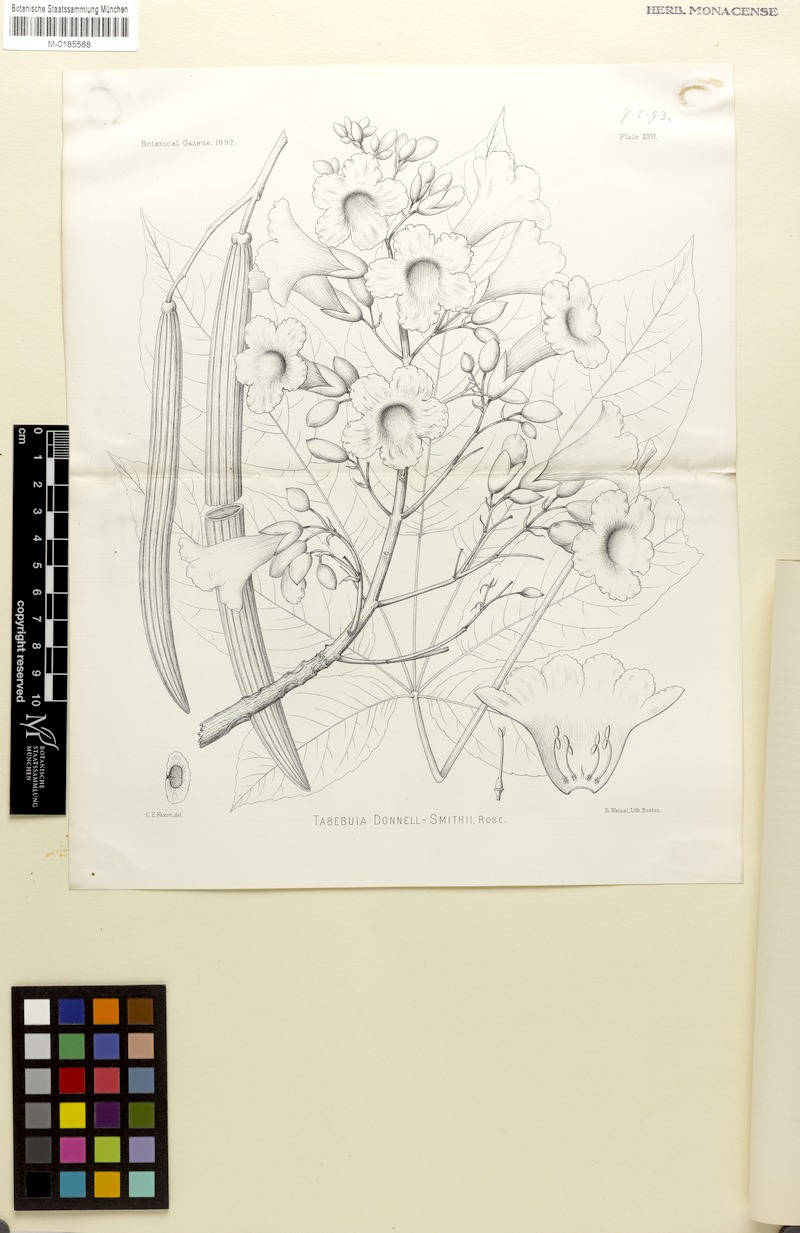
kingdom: Plantae
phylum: Tracheophyta
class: Magnoliopsida
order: Lamiales
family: Bignoniaceae
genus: Roseodendron
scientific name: Roseodendron donnell-smithii
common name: White-mahogany
